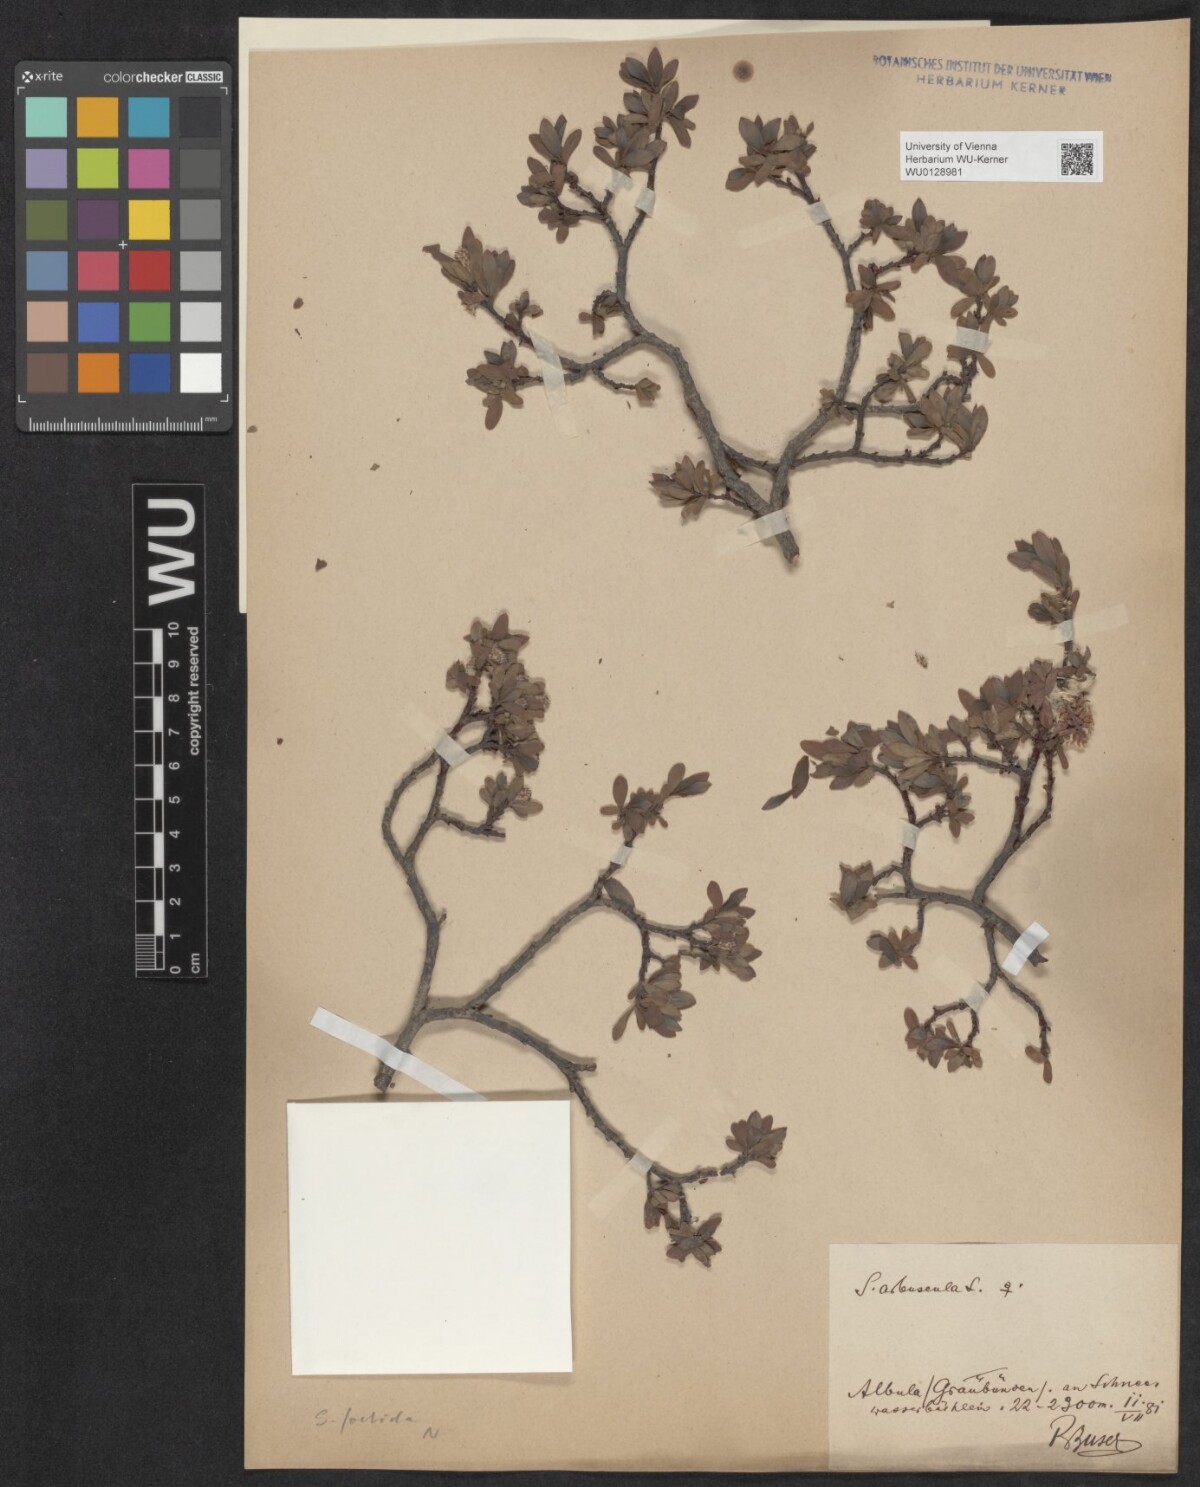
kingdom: Plantae
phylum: Tracheophyta
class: Magnoliopsida
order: Malpighiales
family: Salicaceae
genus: Salix
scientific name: Salix foetida
